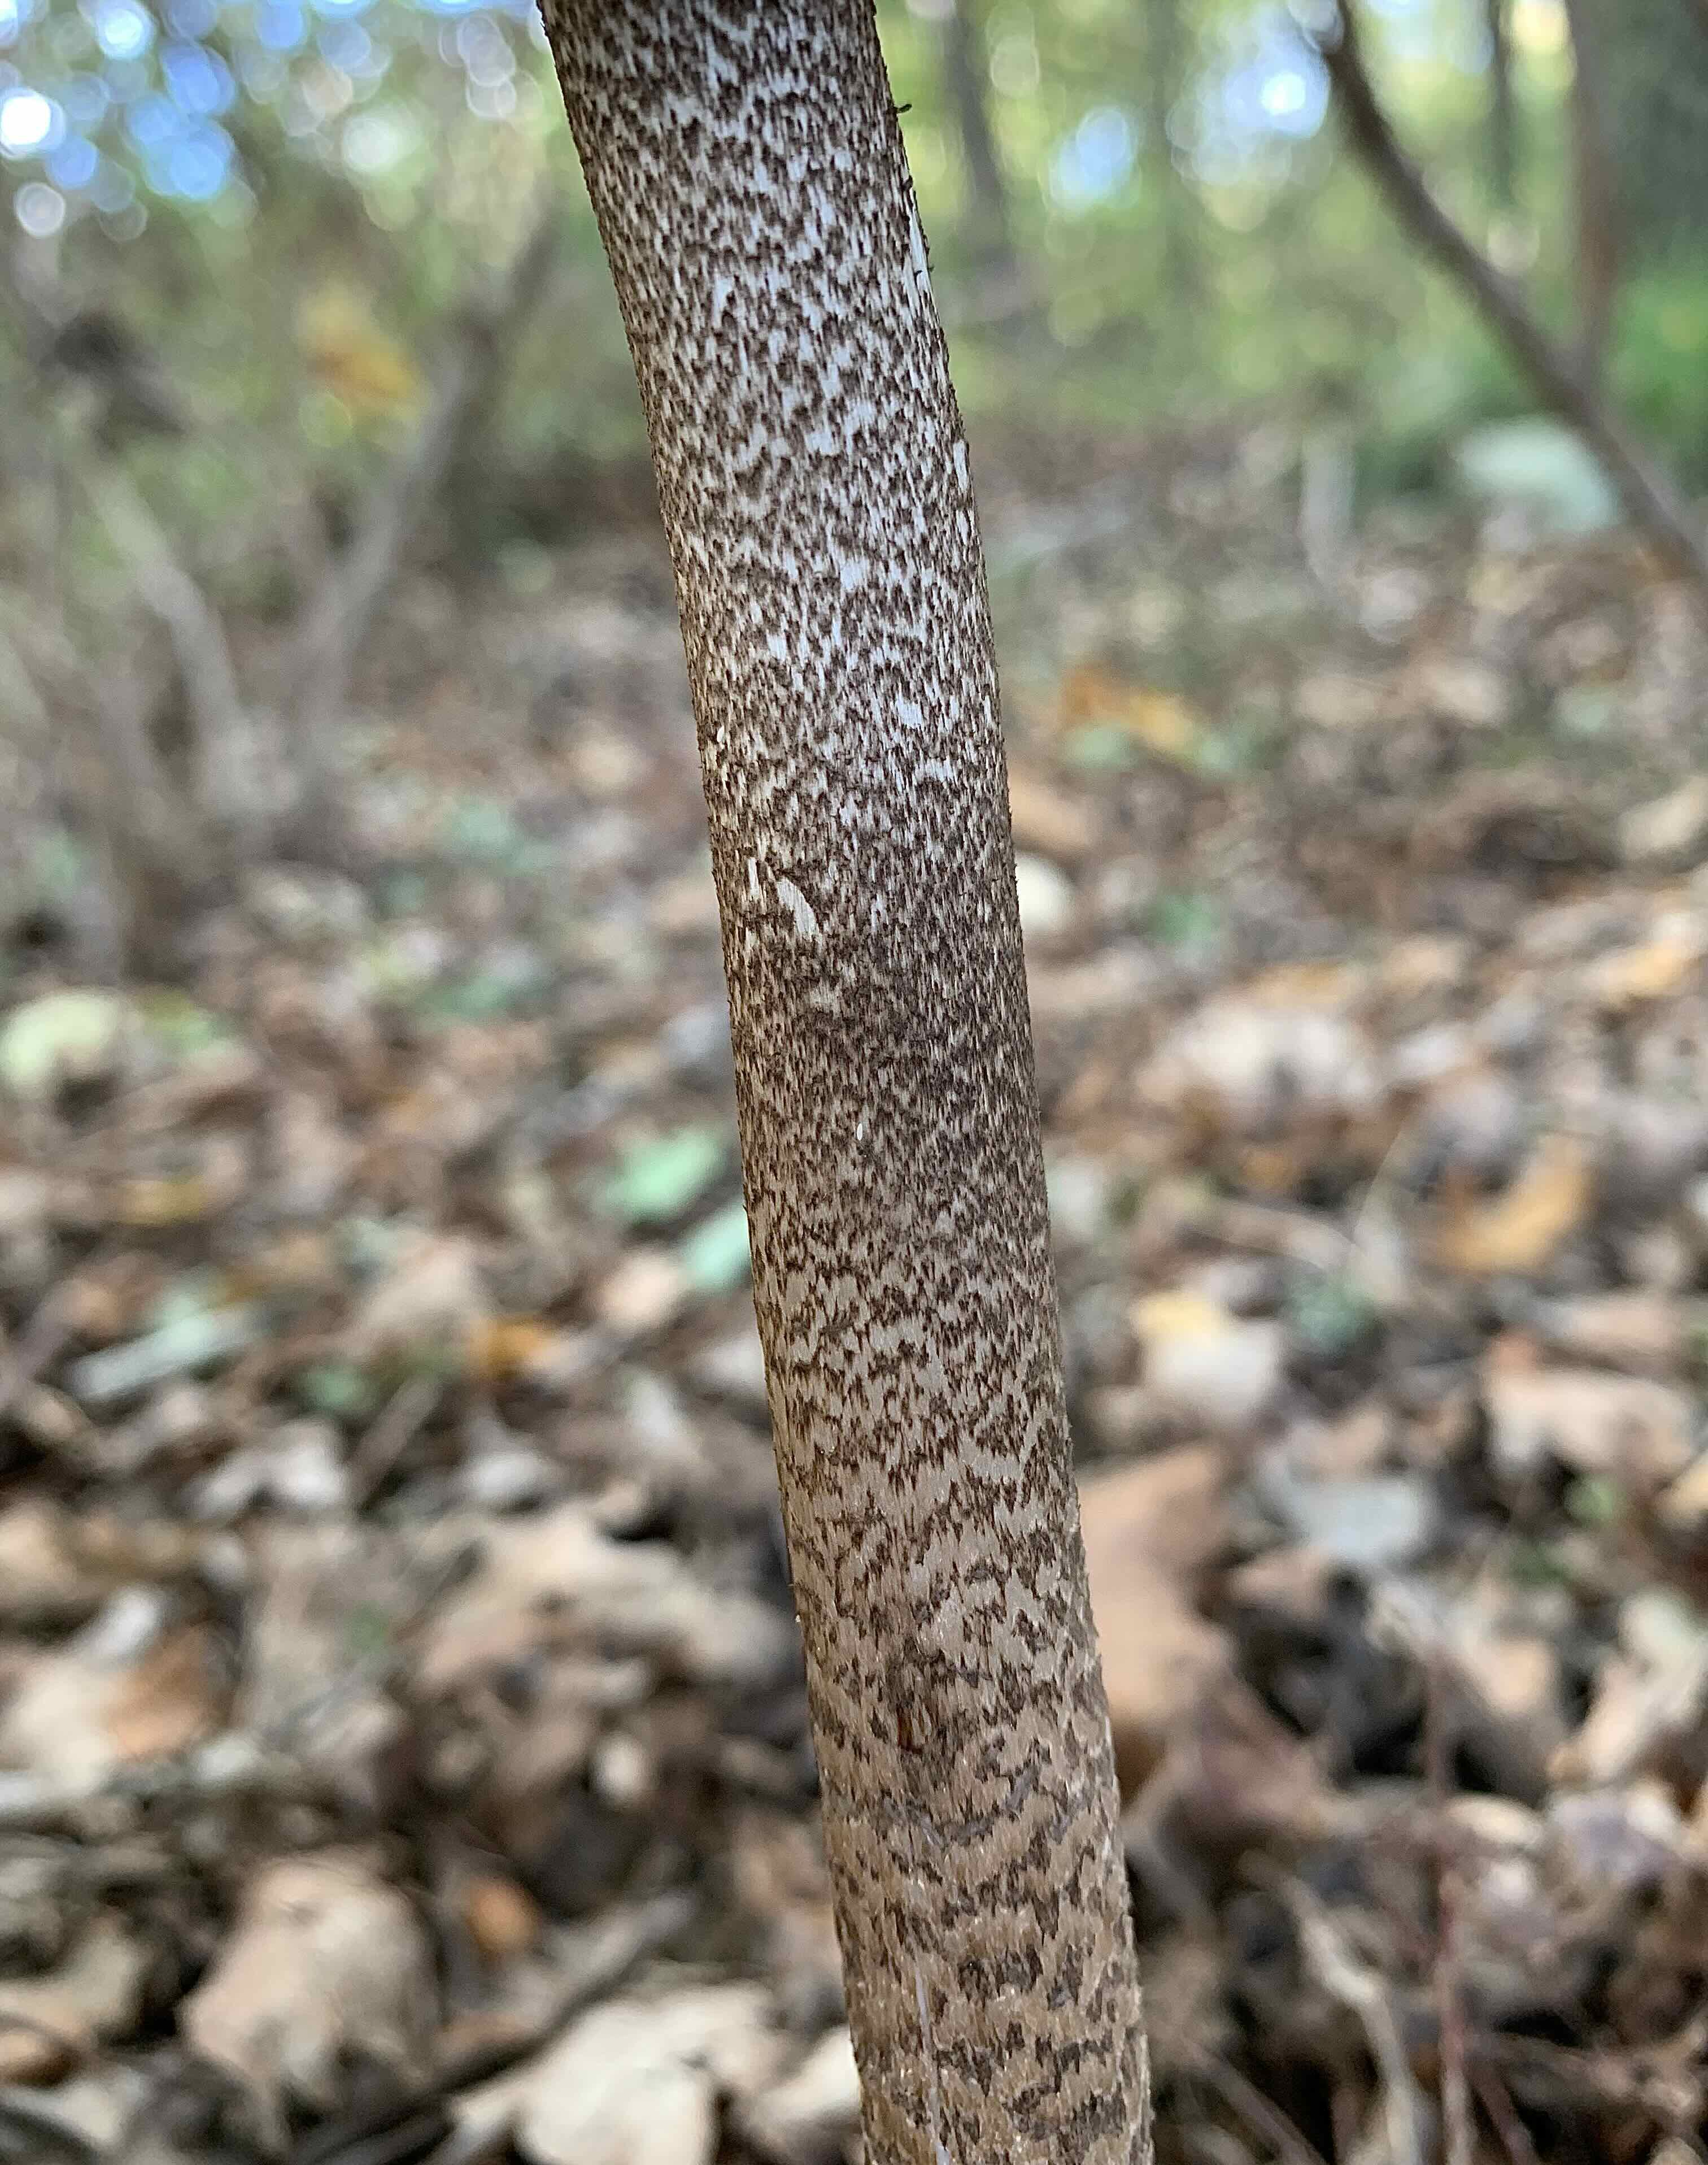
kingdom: Fungi
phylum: Basidiomycota
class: Agaricomycetes
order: Agaricales
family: Agaricaceae
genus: Macrolepiota
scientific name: Macrolepiota fuliginosa
